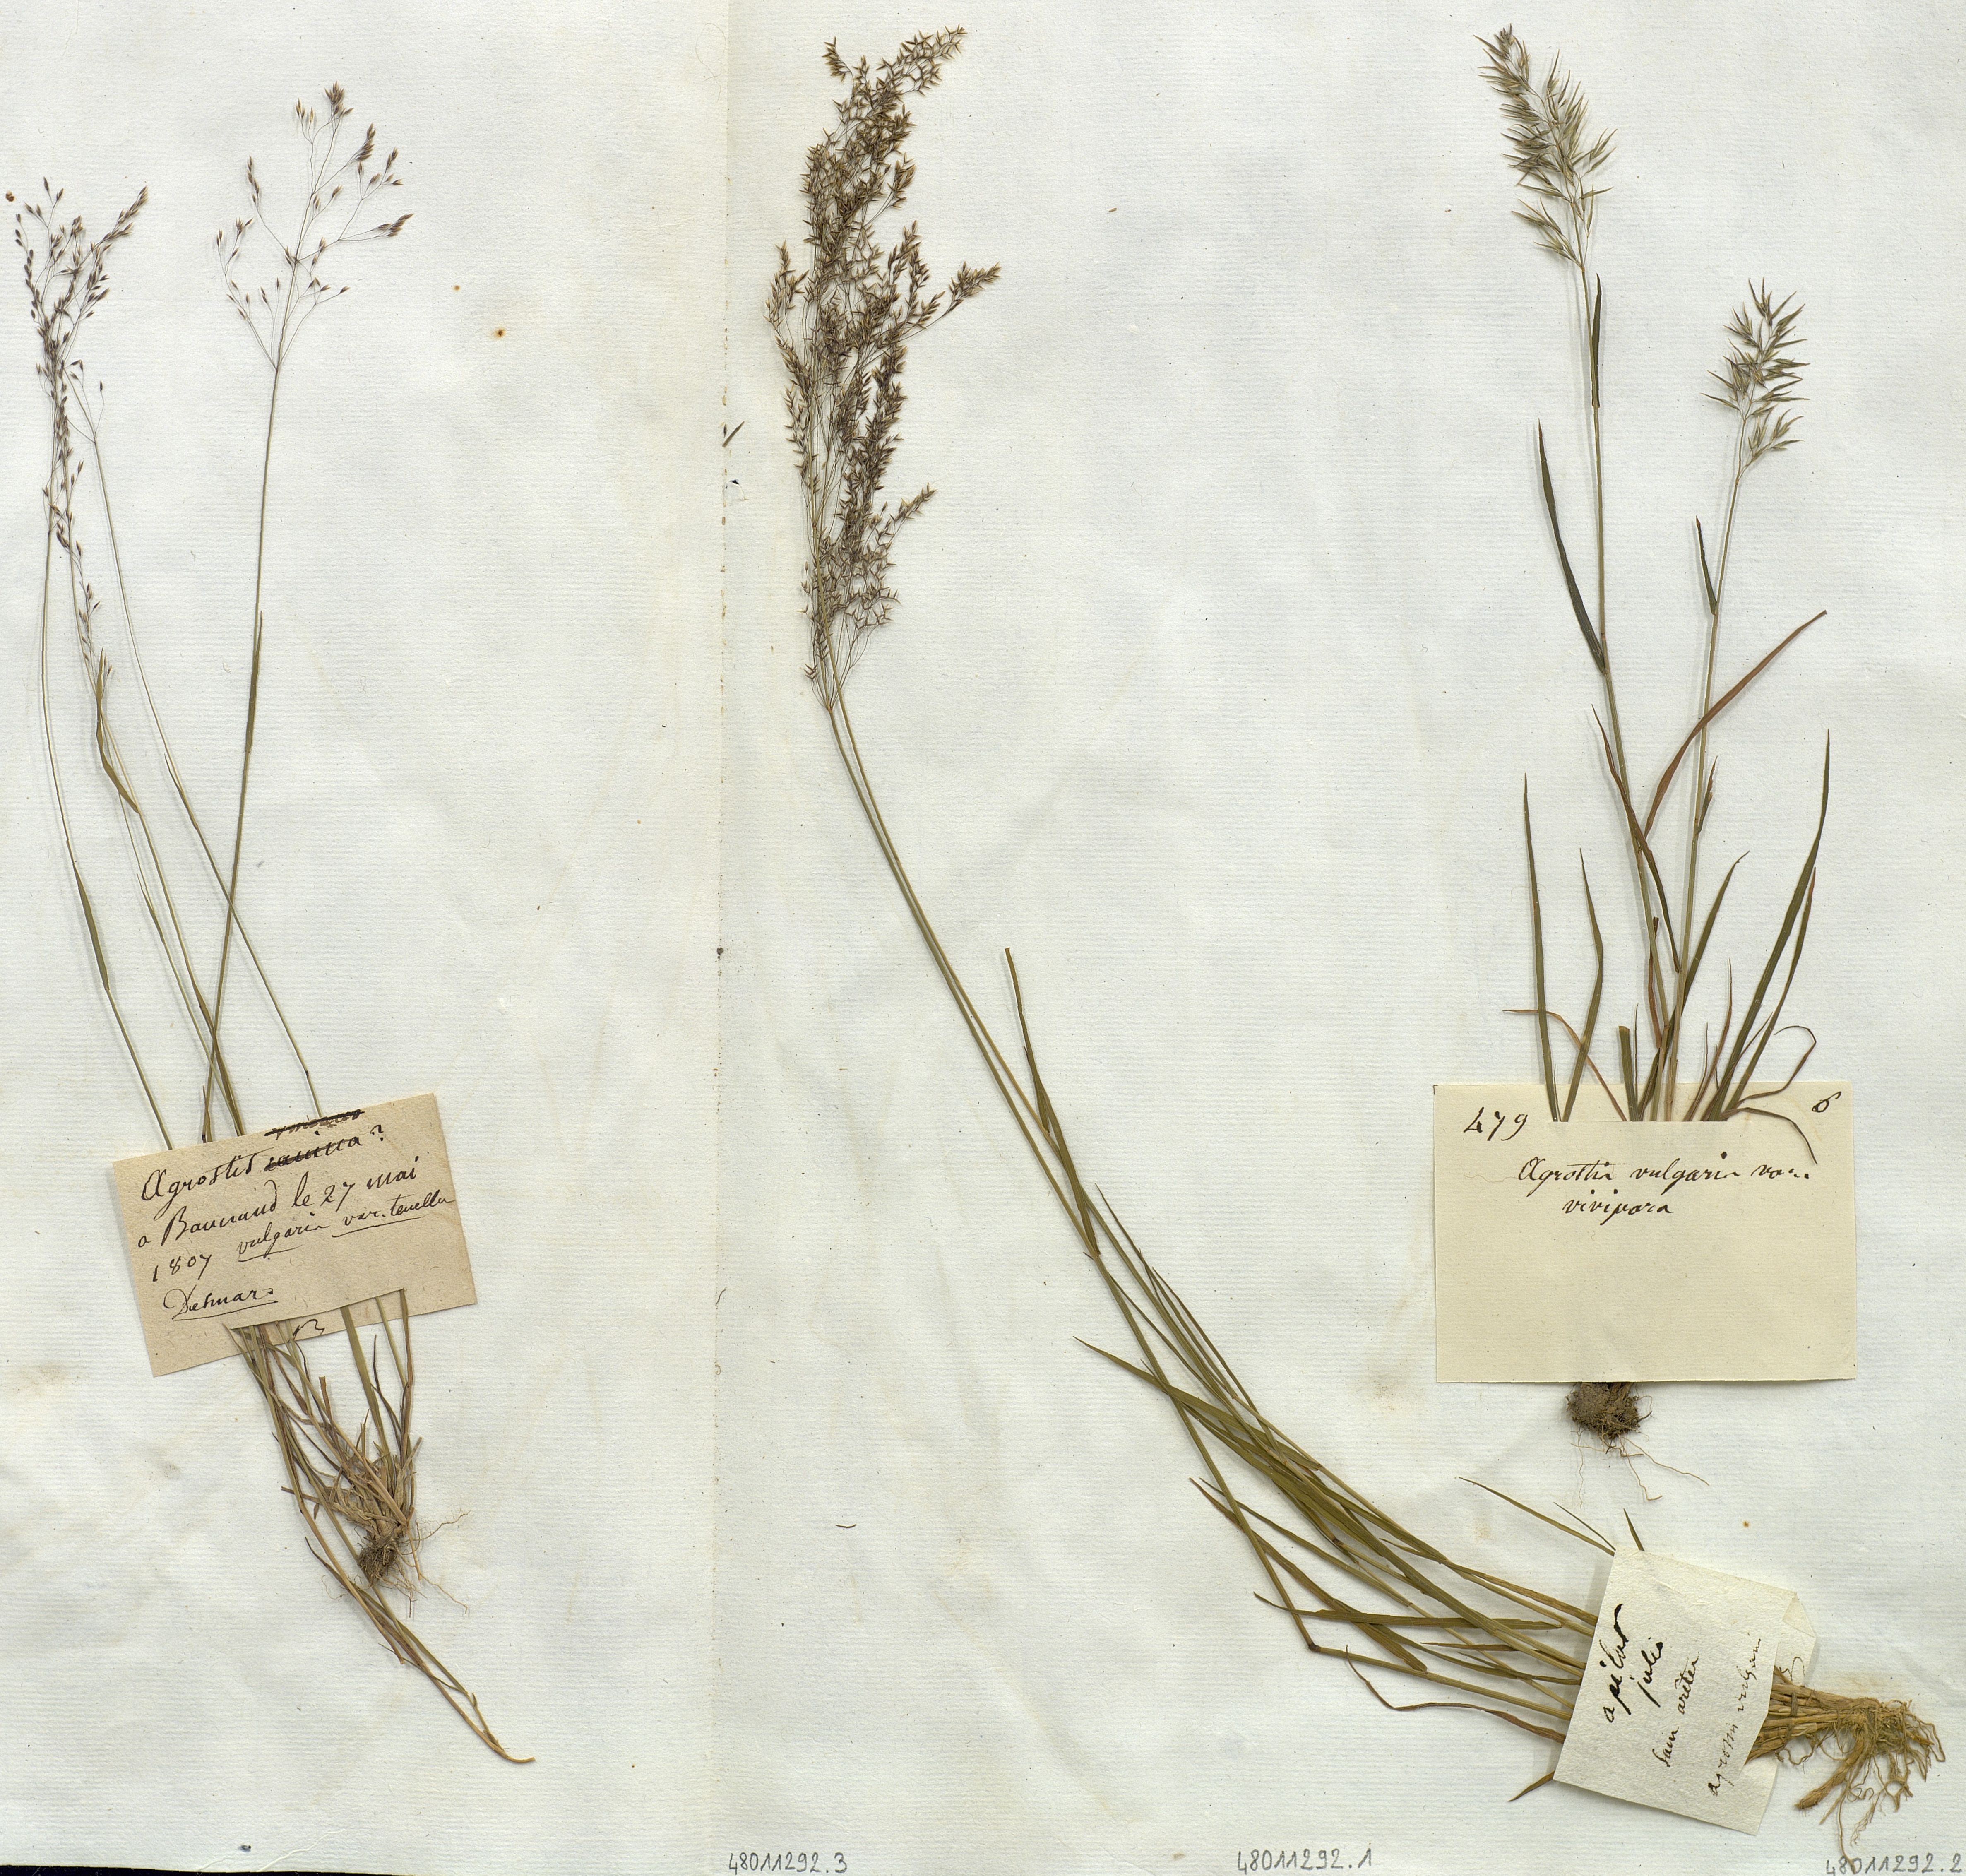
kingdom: Plantae
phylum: Tracheophyta
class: Liliopsida
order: Poales
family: Poaceae
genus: Agrostis
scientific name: Agrostis capillaris
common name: Colonial bentgrass
